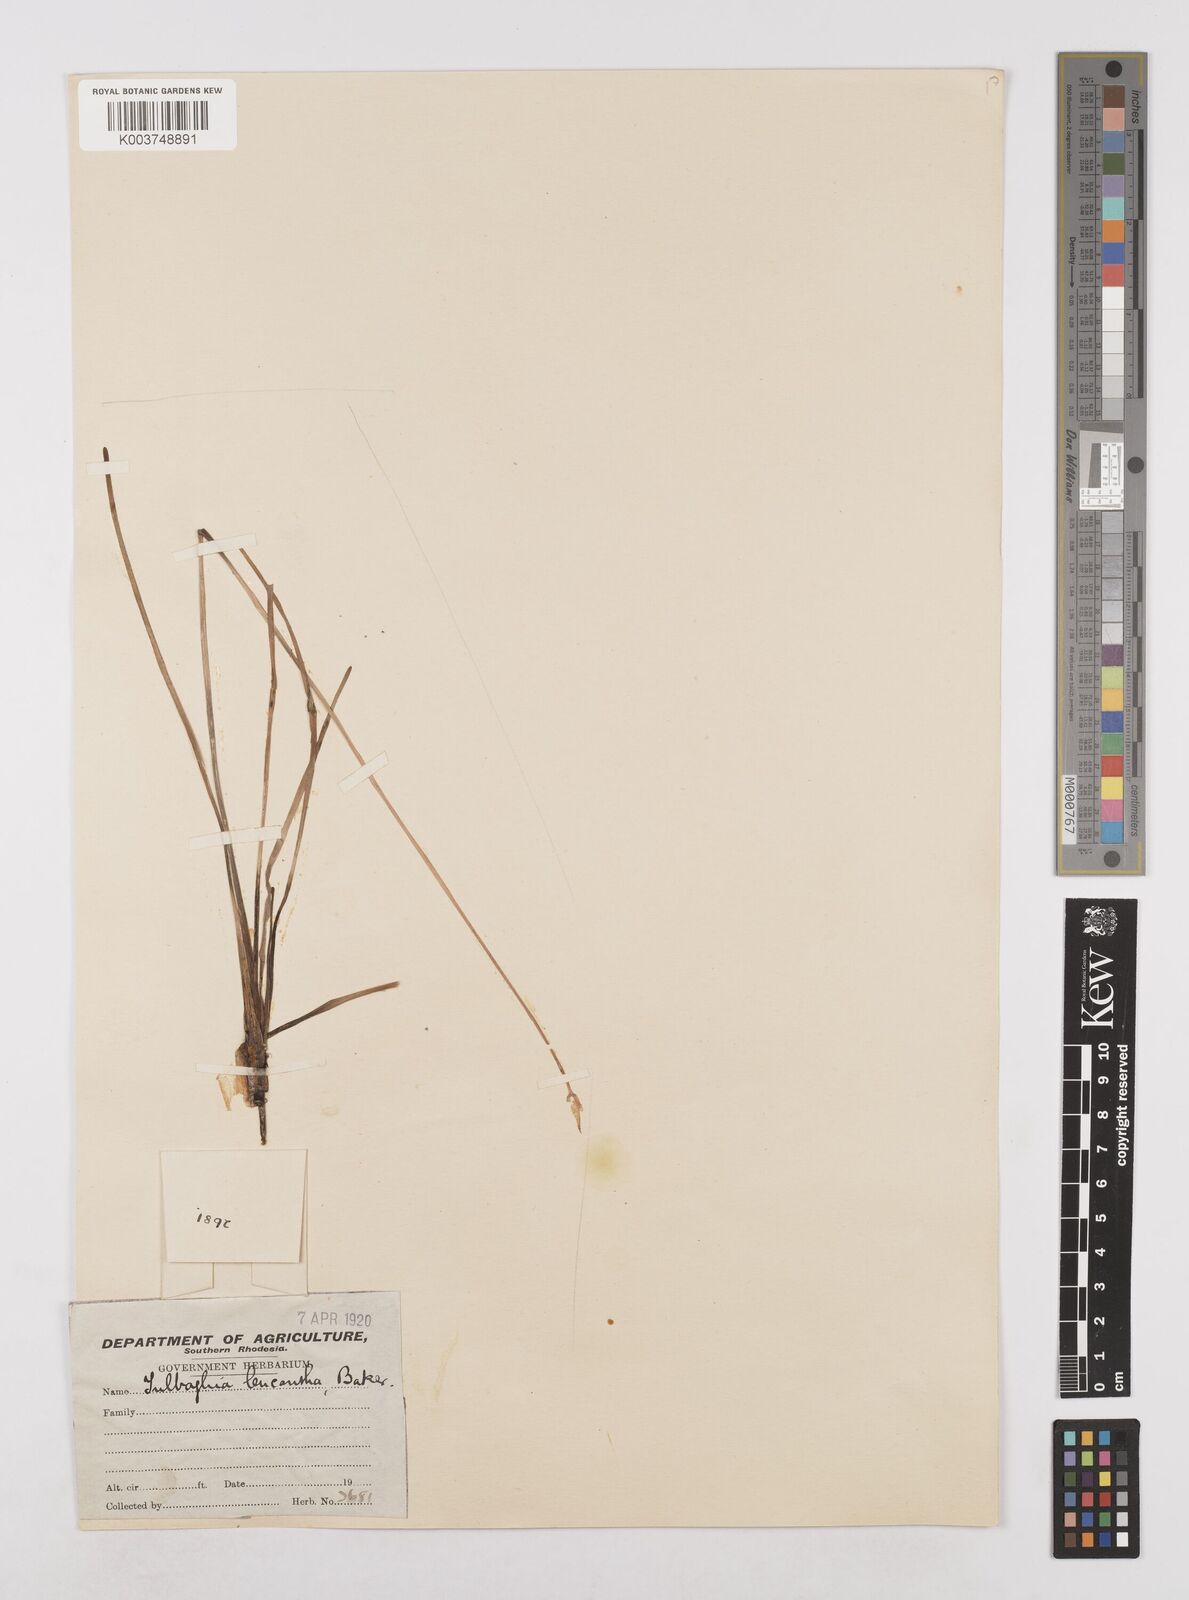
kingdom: Plantae
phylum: Tracheophyta
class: Liliopsida
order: Asparagales
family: Amaryllidaceae
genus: Tulbaghia
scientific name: Tulbaghia leucantha
